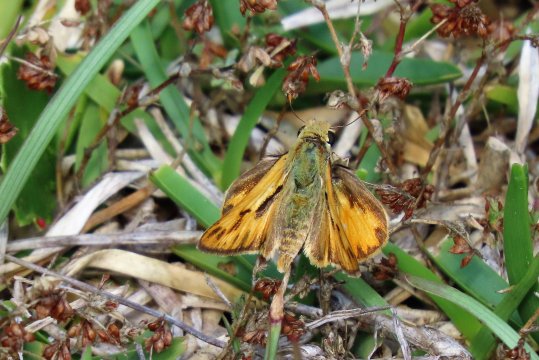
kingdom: Animalia
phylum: Arthropoda
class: Insecta
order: Lepidoptera
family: Hesperiidae
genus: Hylephila
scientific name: Hylephila phyleus
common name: Fiery Skipper
